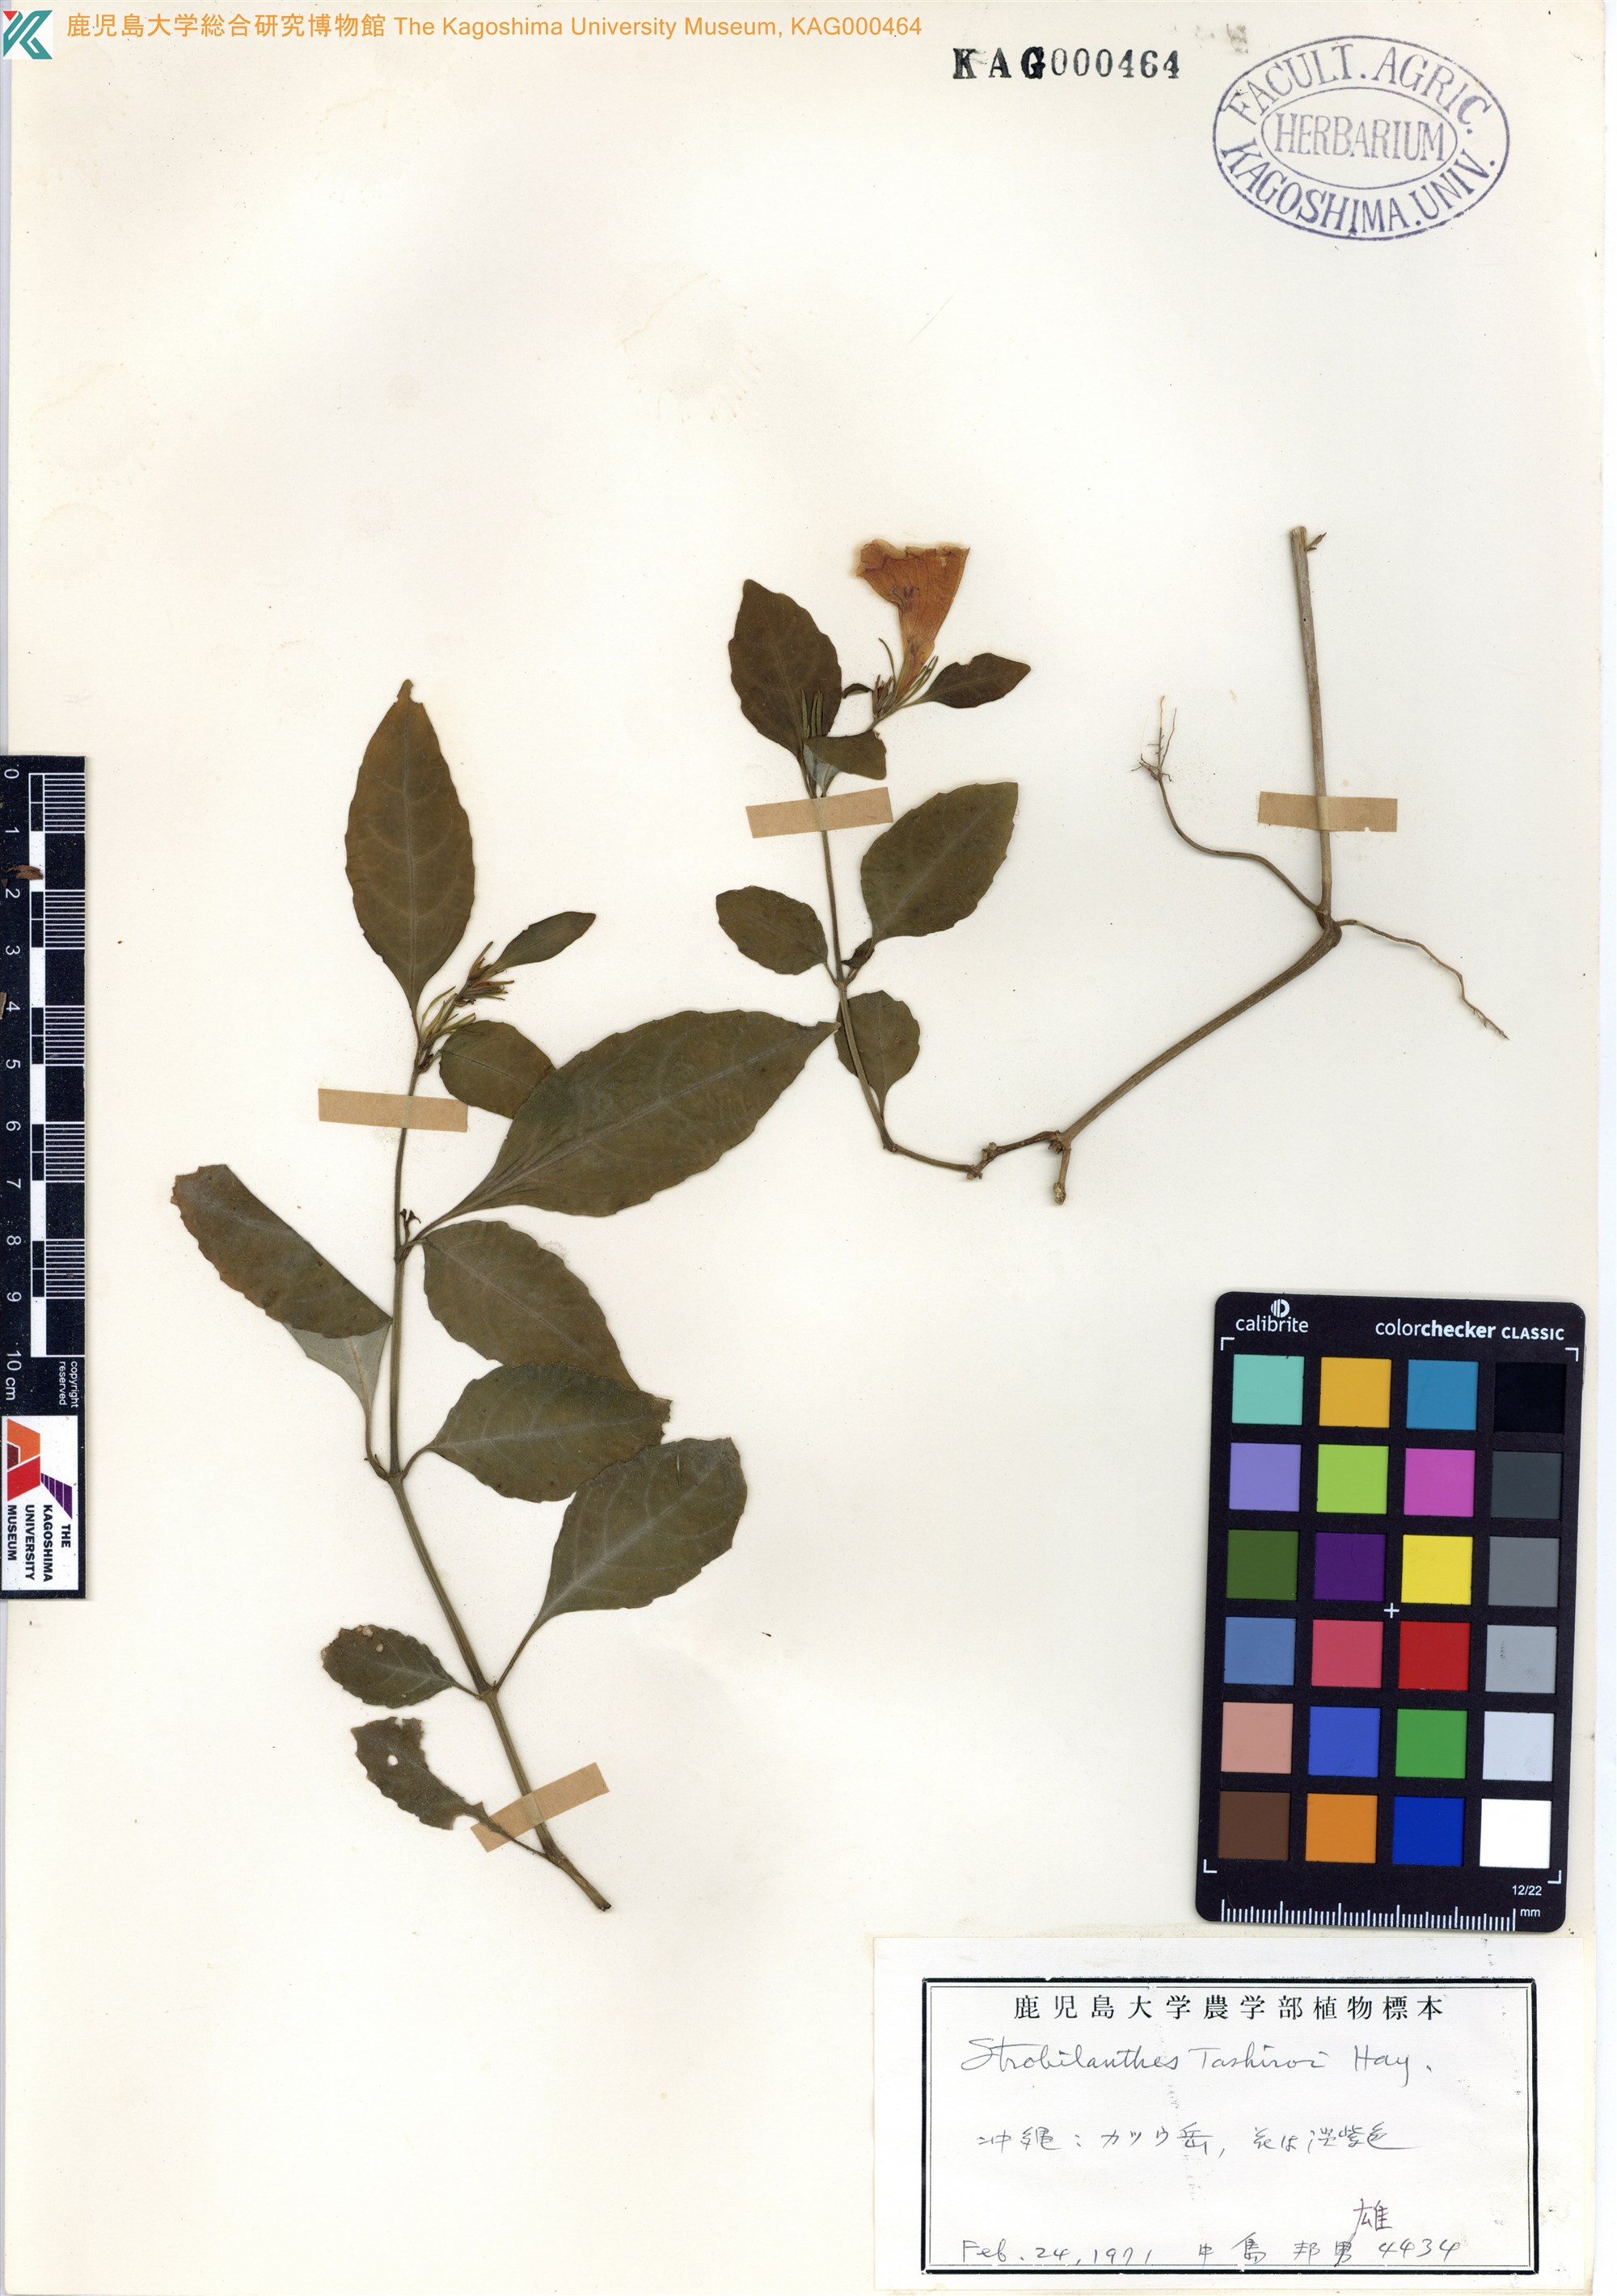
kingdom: Plantae
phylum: Tracheophyta
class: Magnoliopsida
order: Lamiales
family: Acanthaceae
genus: Strobilanthes
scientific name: Strobilanthes flexicaulis
